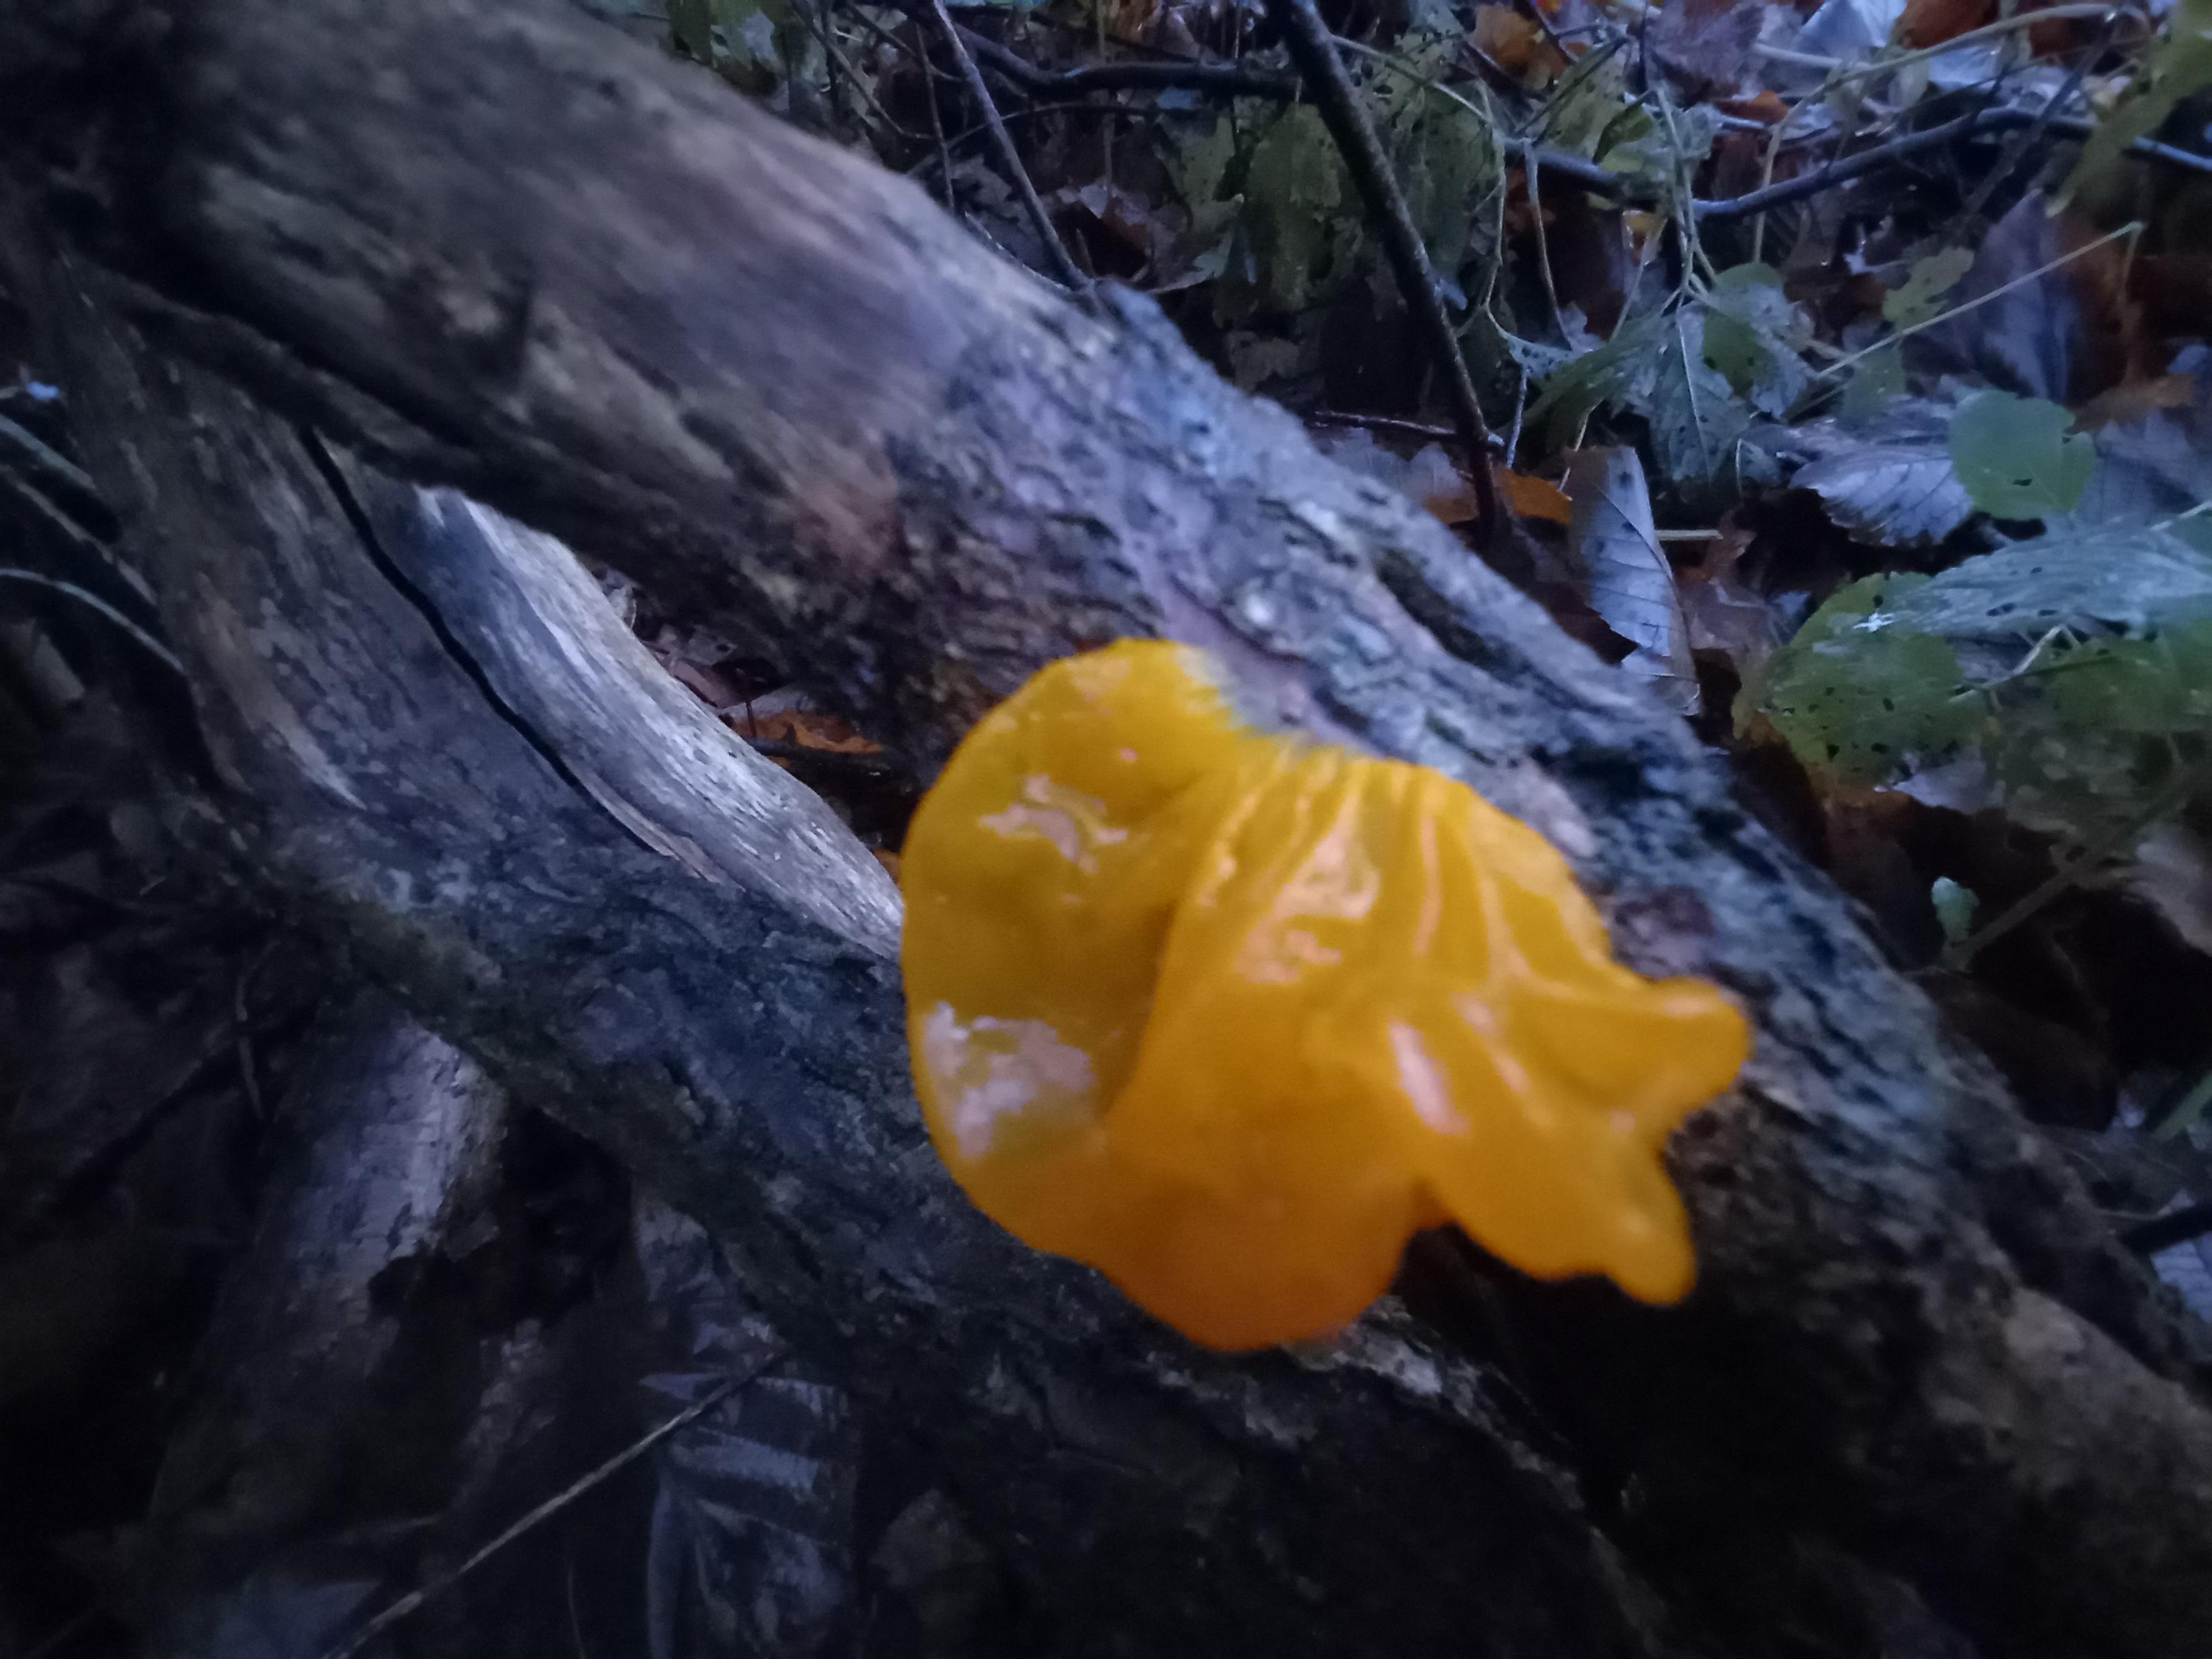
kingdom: Fungi
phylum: Basidiomycota
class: Tremellomycetes
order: Tremellales
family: Tremellaceae
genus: Tremella
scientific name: Tremella mesenterica
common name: gul bævresvamp
